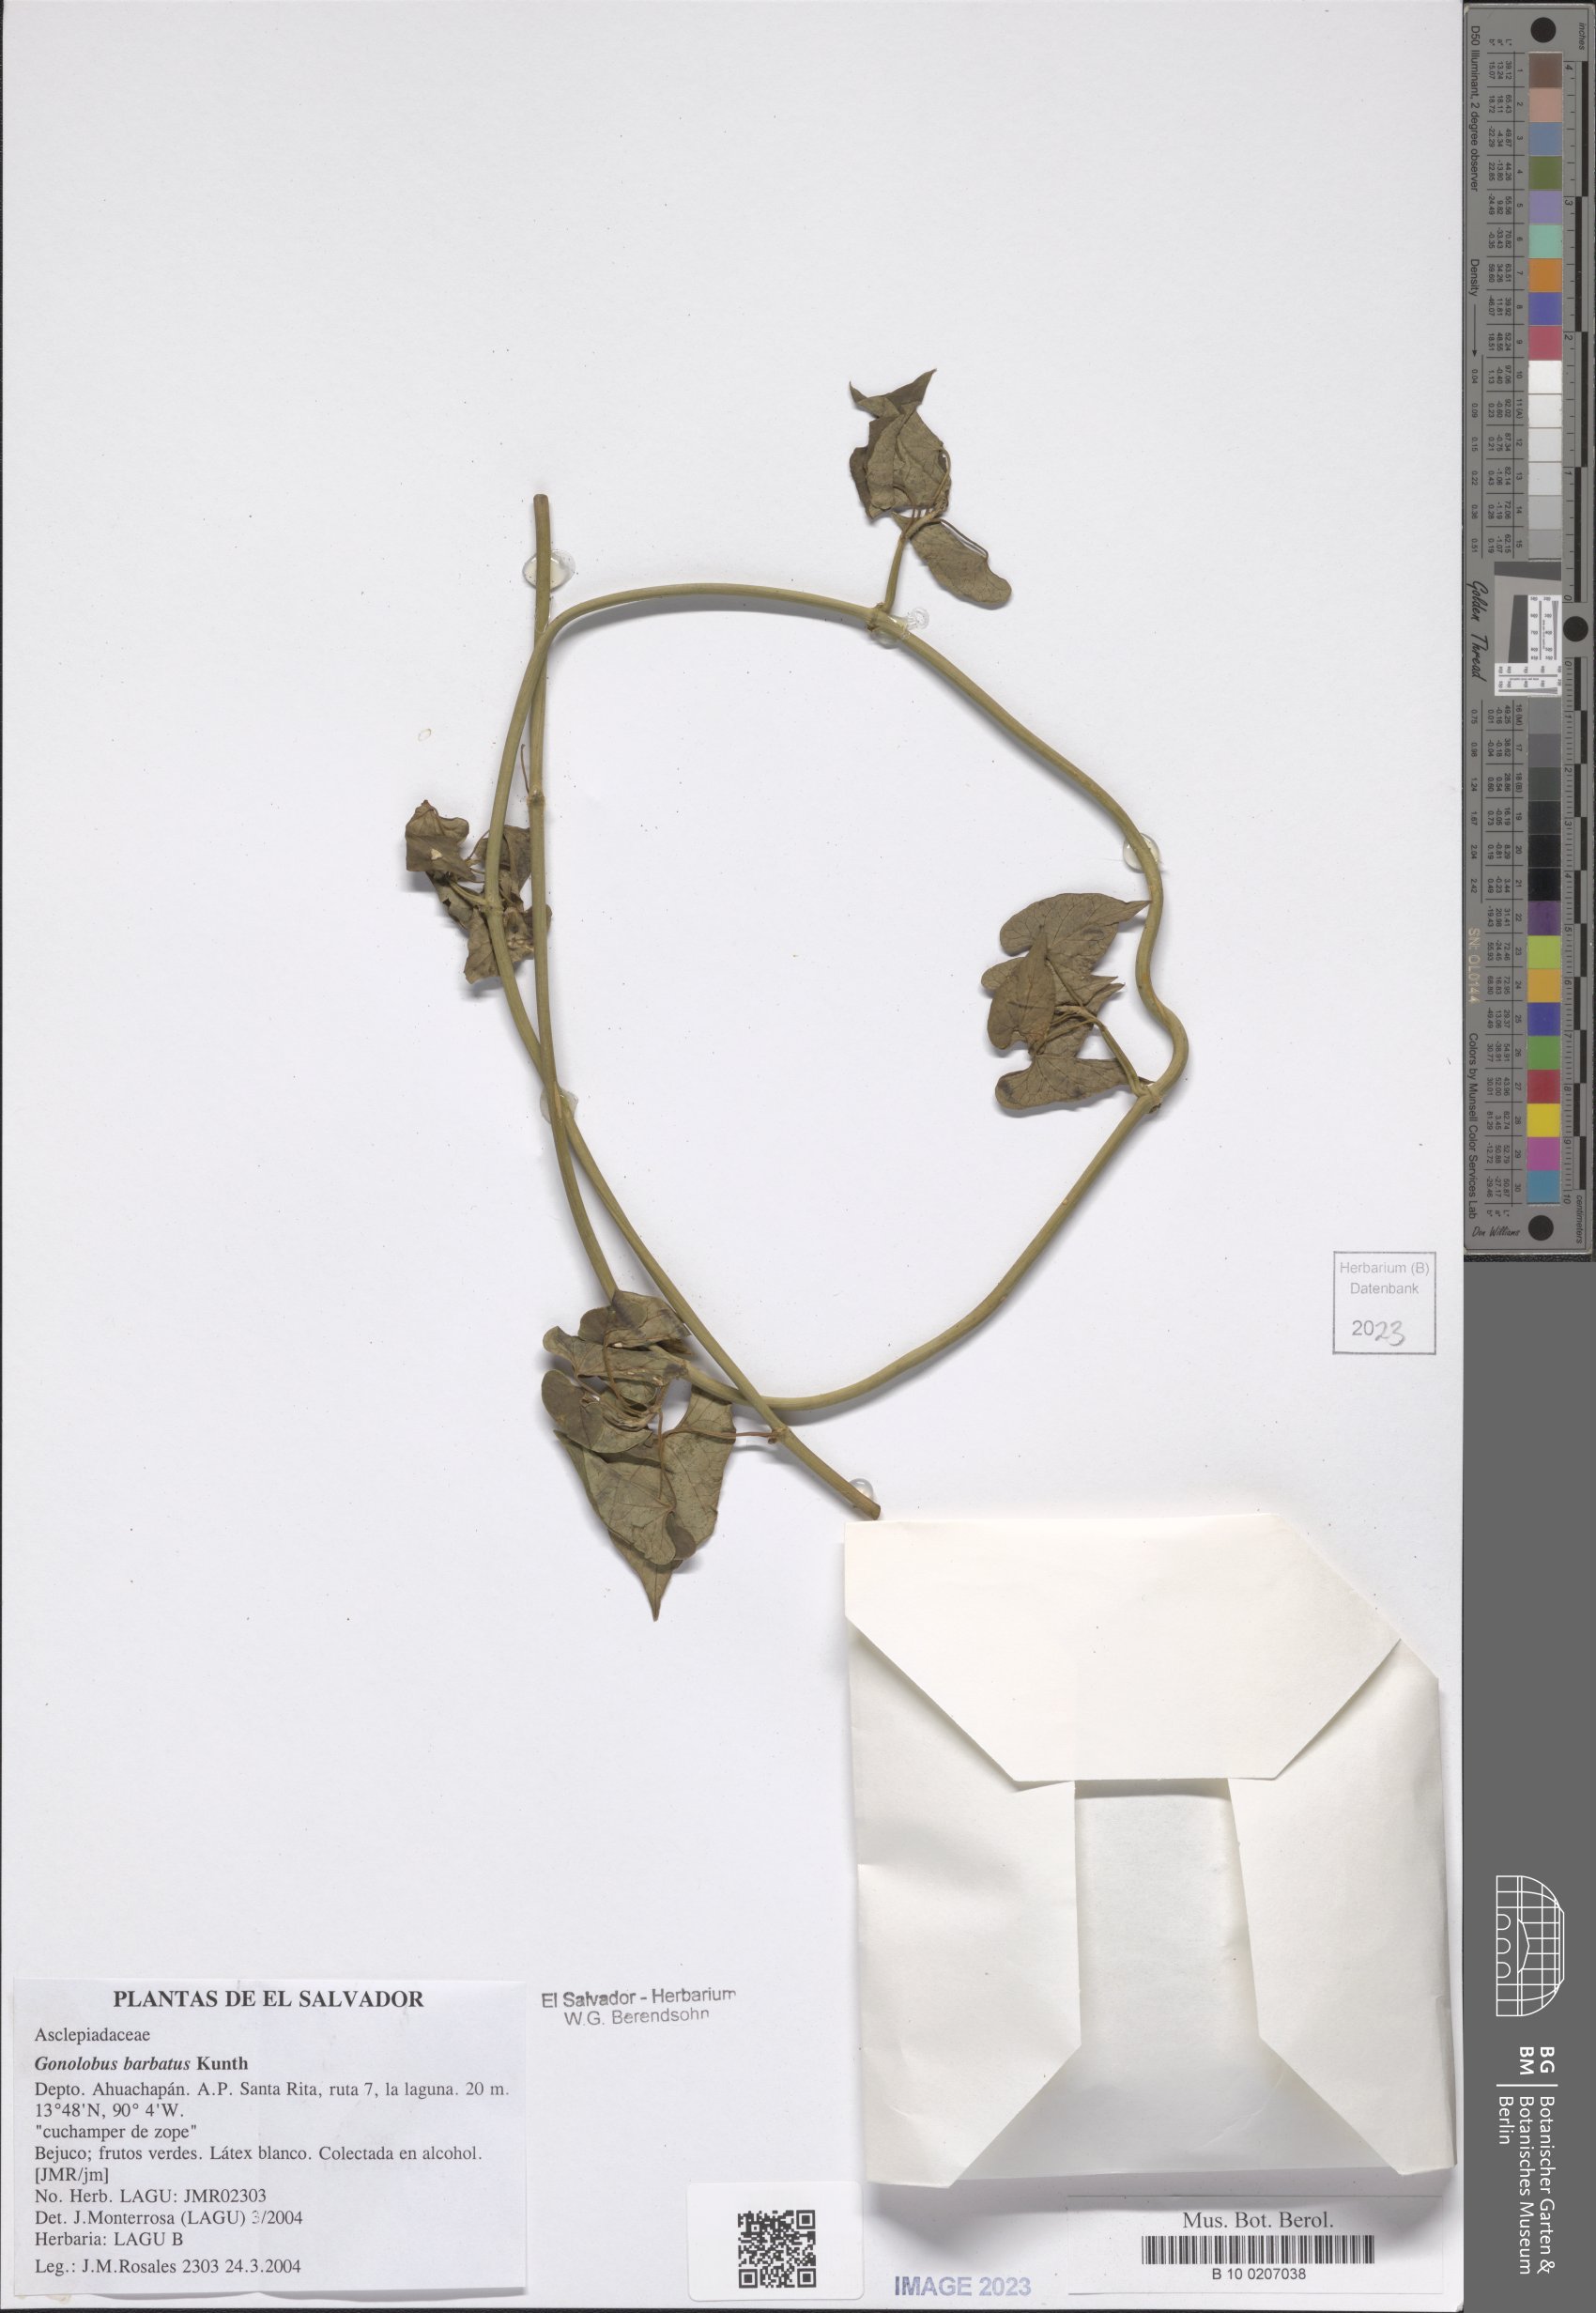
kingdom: Plantae
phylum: Tracheophyta
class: Magnoliopsida
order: Gentianales
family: Apocynaceae
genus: Gonolobus
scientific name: Gonolobus barbatus
